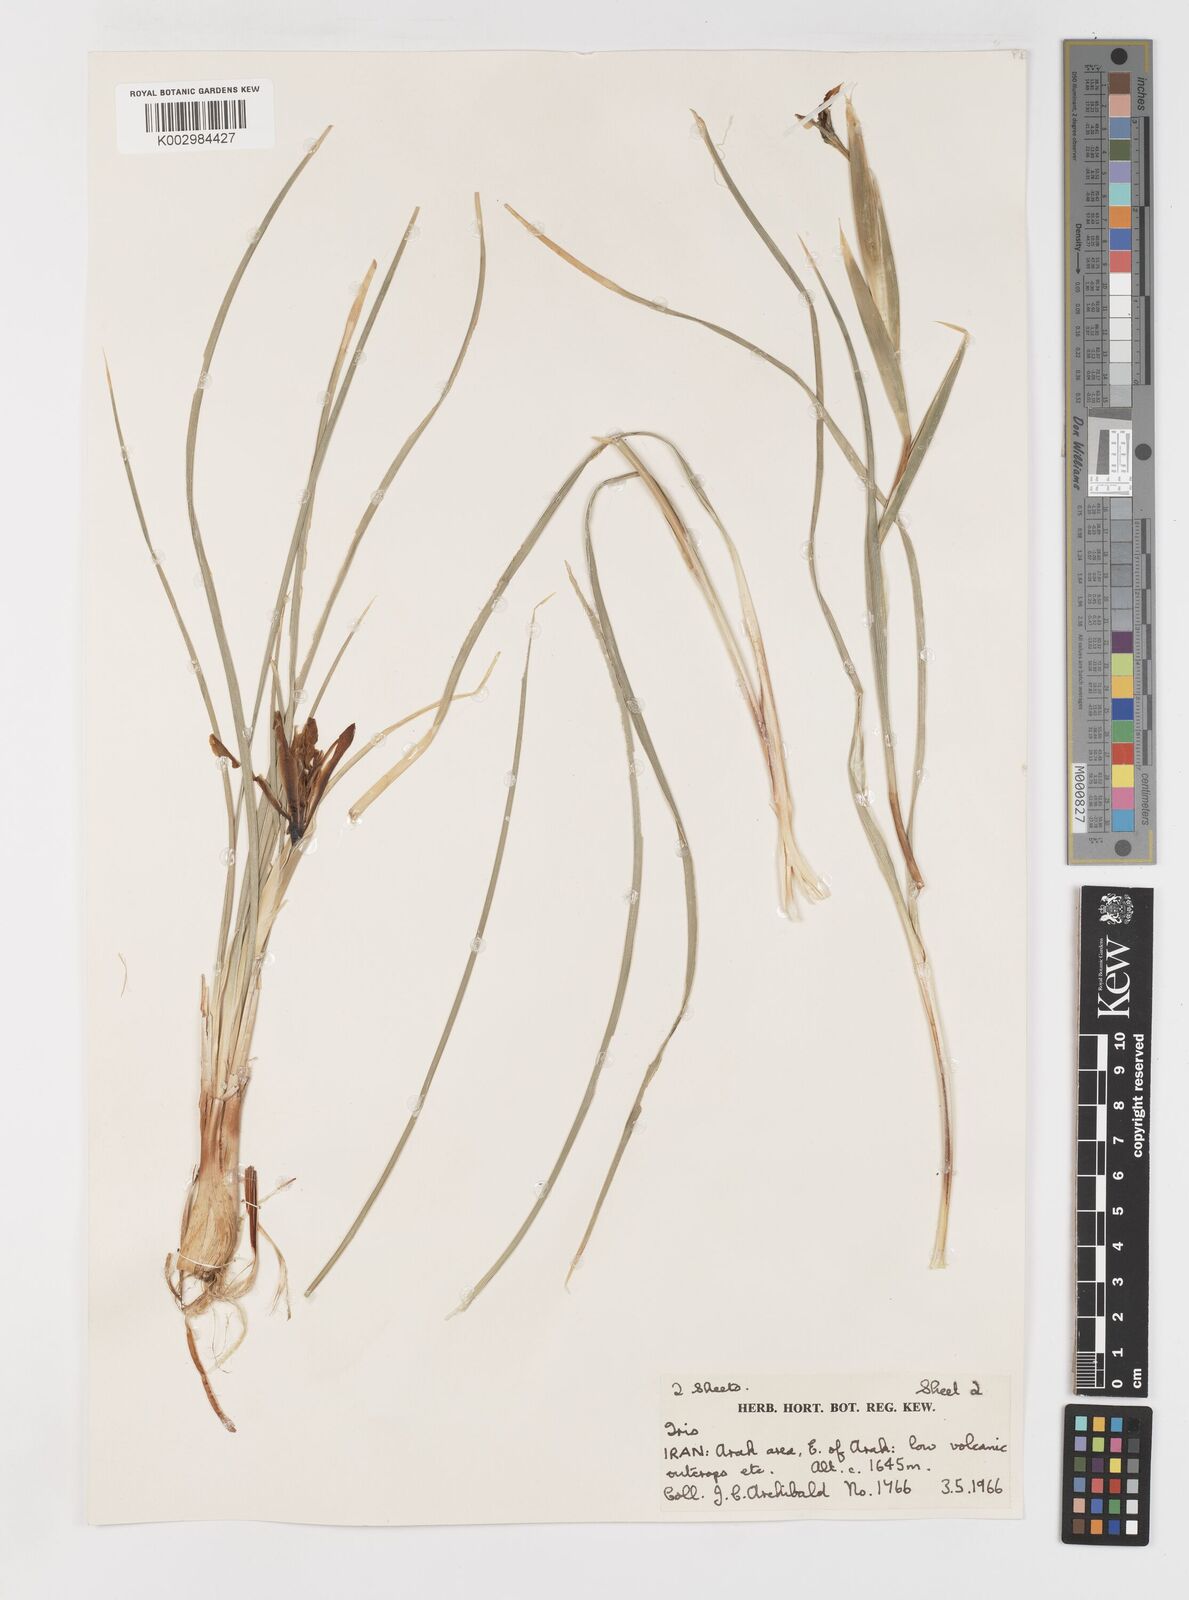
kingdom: Plantae
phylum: Tracheophyta
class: Liliopsida
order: Asparagales
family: Iridaceae
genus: Iris
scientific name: Iris songarica
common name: Songar iris
